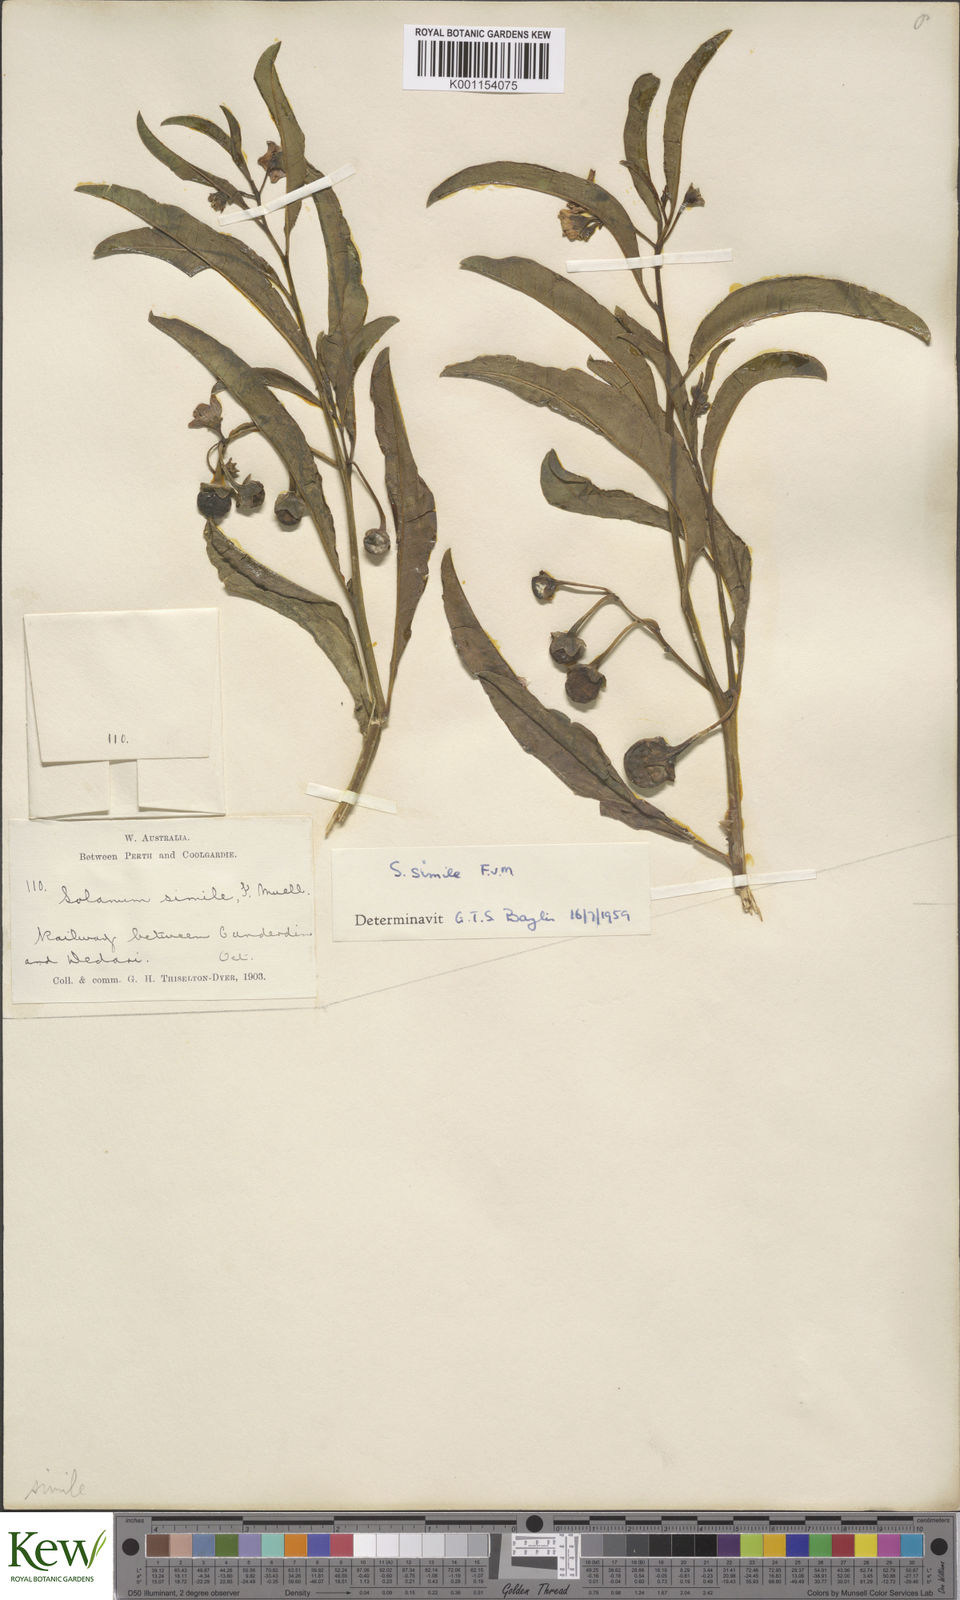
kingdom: Plantae
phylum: Tracheophyta
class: Magnoliopsida
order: Solanales
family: Solanaceae
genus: Solanum
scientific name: Solanum simile
